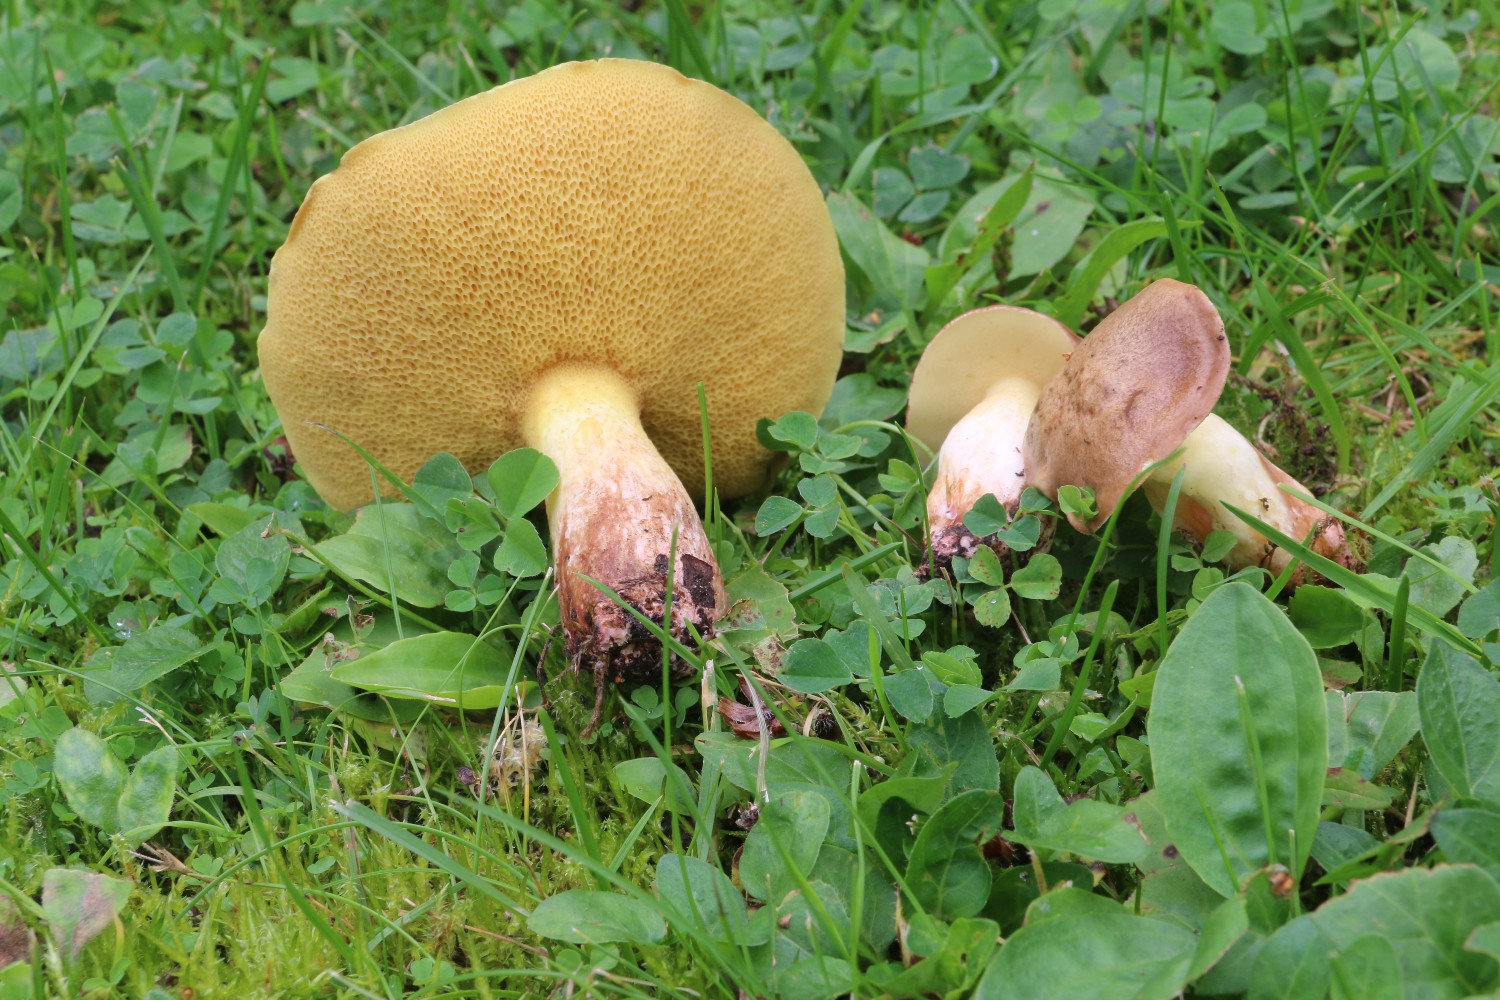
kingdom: Fungi
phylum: Basidiomycota
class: Agaricomycetes
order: Boletales
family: Suillaceae
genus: Suillus
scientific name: Suillus collinitus
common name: rosafodet slimrørhat
